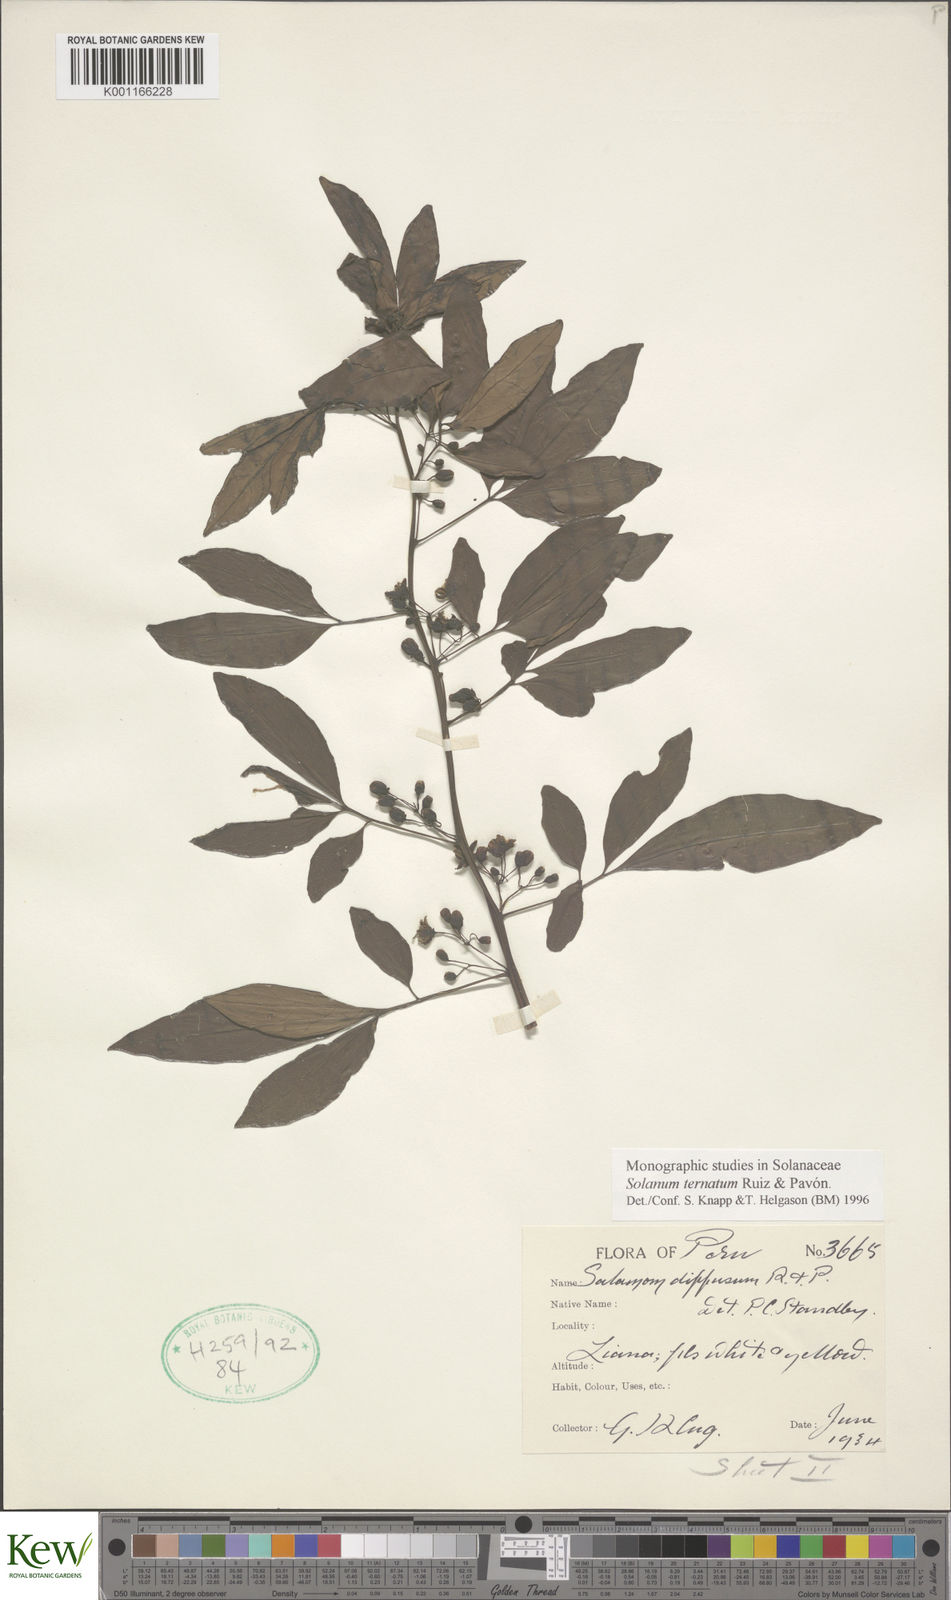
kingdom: Plantae
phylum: Tracheophyta
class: Magnoliopsida
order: Solanales
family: Solanaceae
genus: Solanum
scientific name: Solanum ternatum
